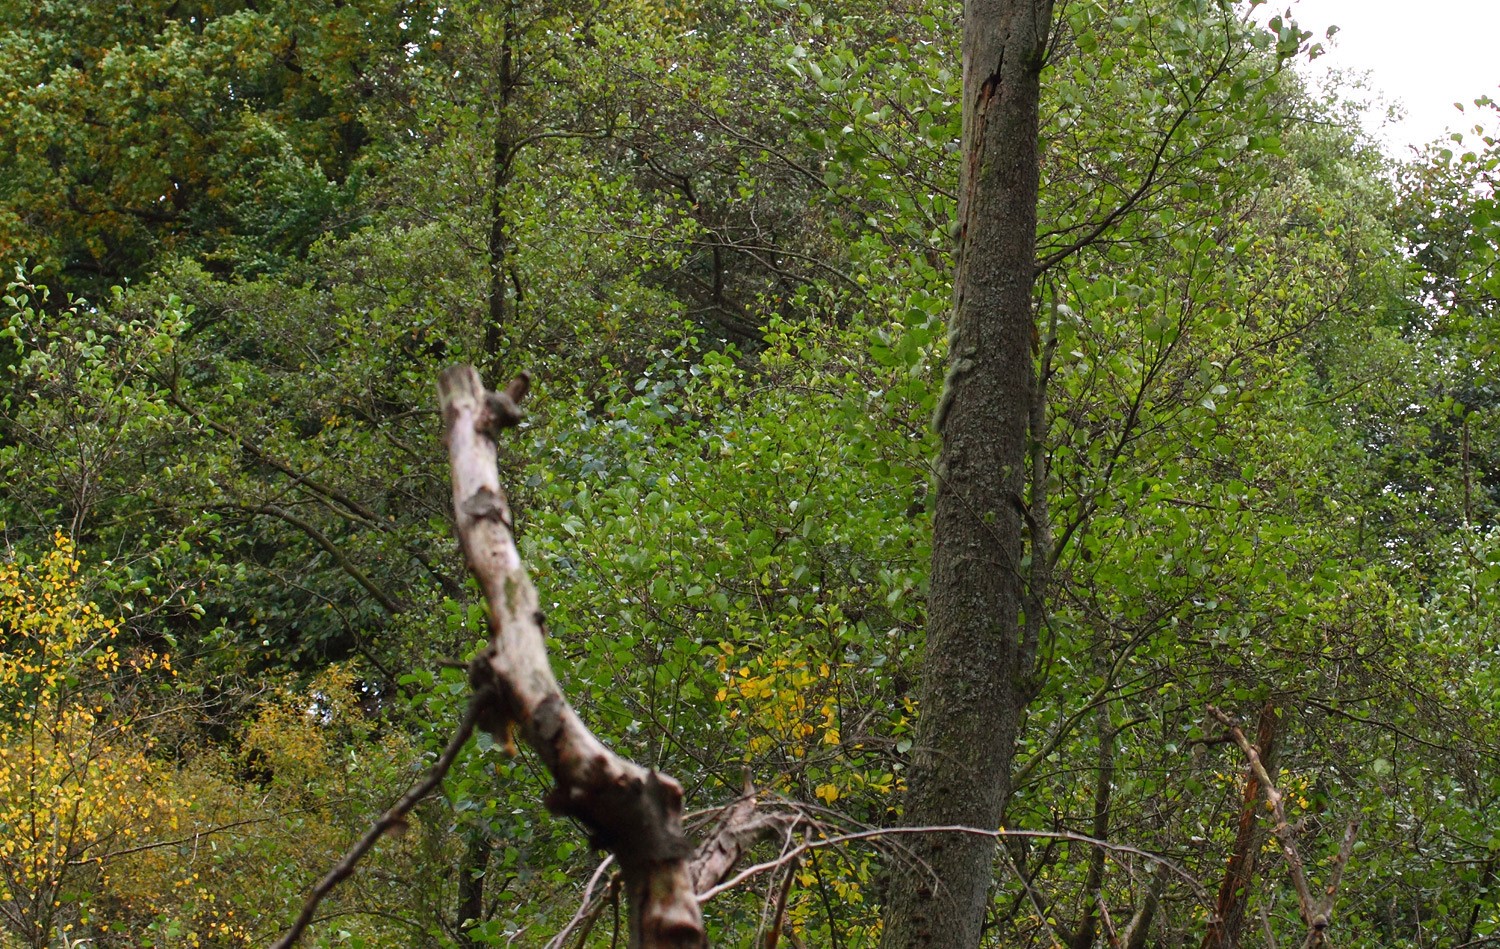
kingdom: Fungi
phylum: Ascomycota
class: Lecanoromycetes
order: Lecanorales
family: Parmeliaceae
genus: Usnea
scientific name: Usnea dasypoga
